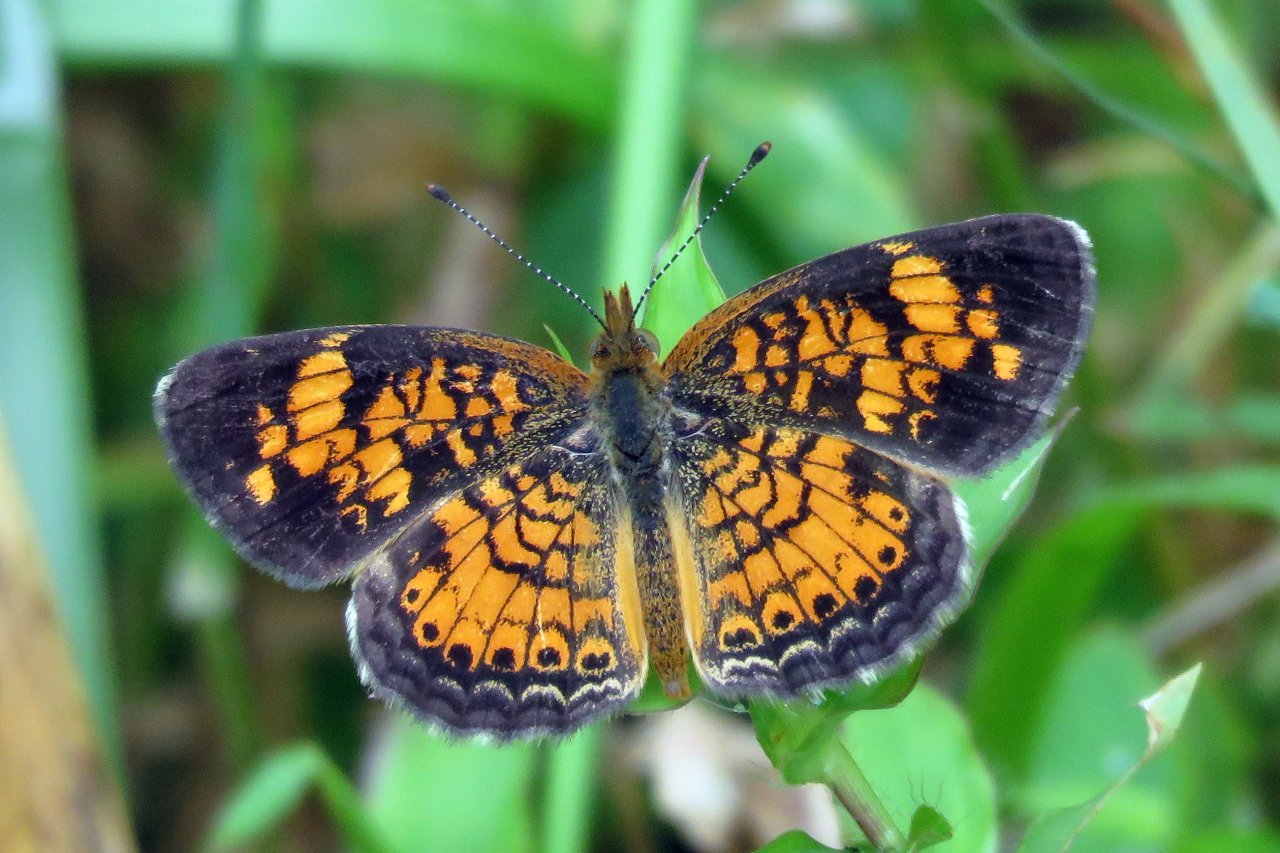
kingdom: Animalia
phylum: Arthropoda
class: Insecta
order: Lepidoptera
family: Nymphalidae
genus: Phyciodes
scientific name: Phyciodes tharos
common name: Pearl Crescent
